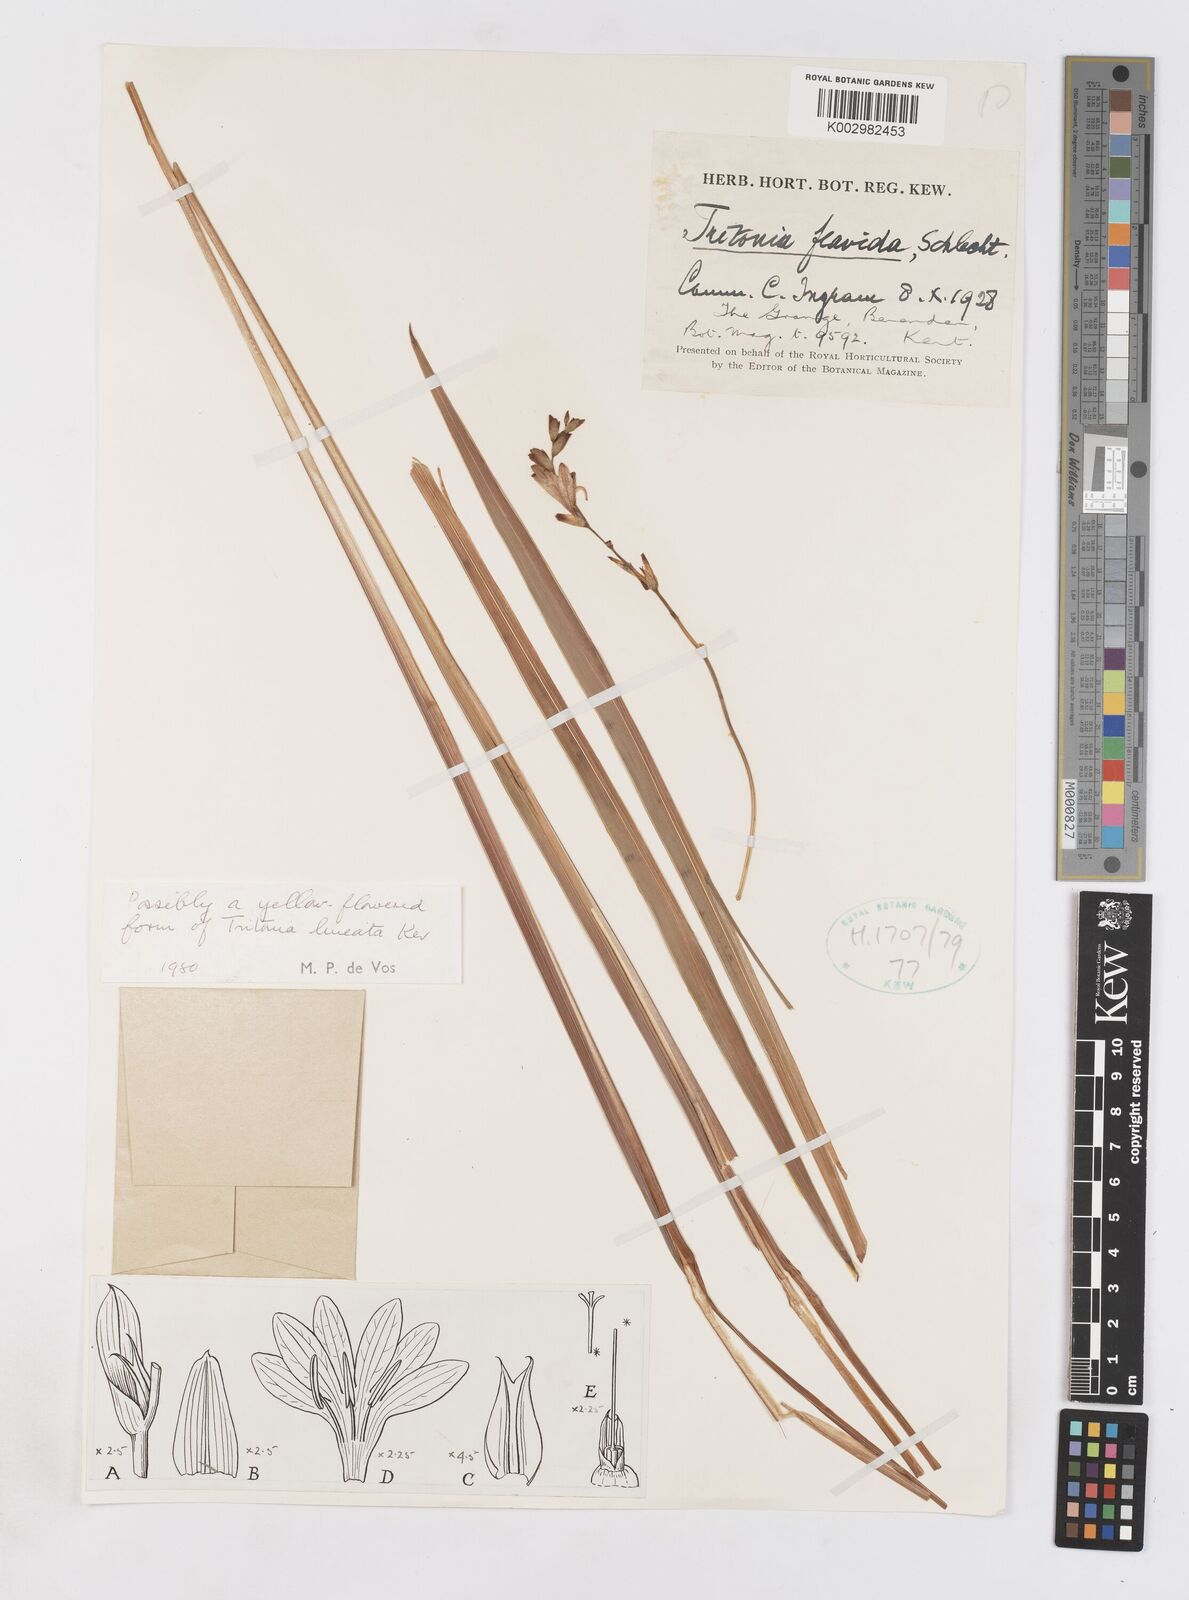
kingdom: Plantae
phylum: Tracheophyta
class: Liliopsida
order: Asparagales
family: Iridaceae
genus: Ixia
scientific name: Ixia scillaris
